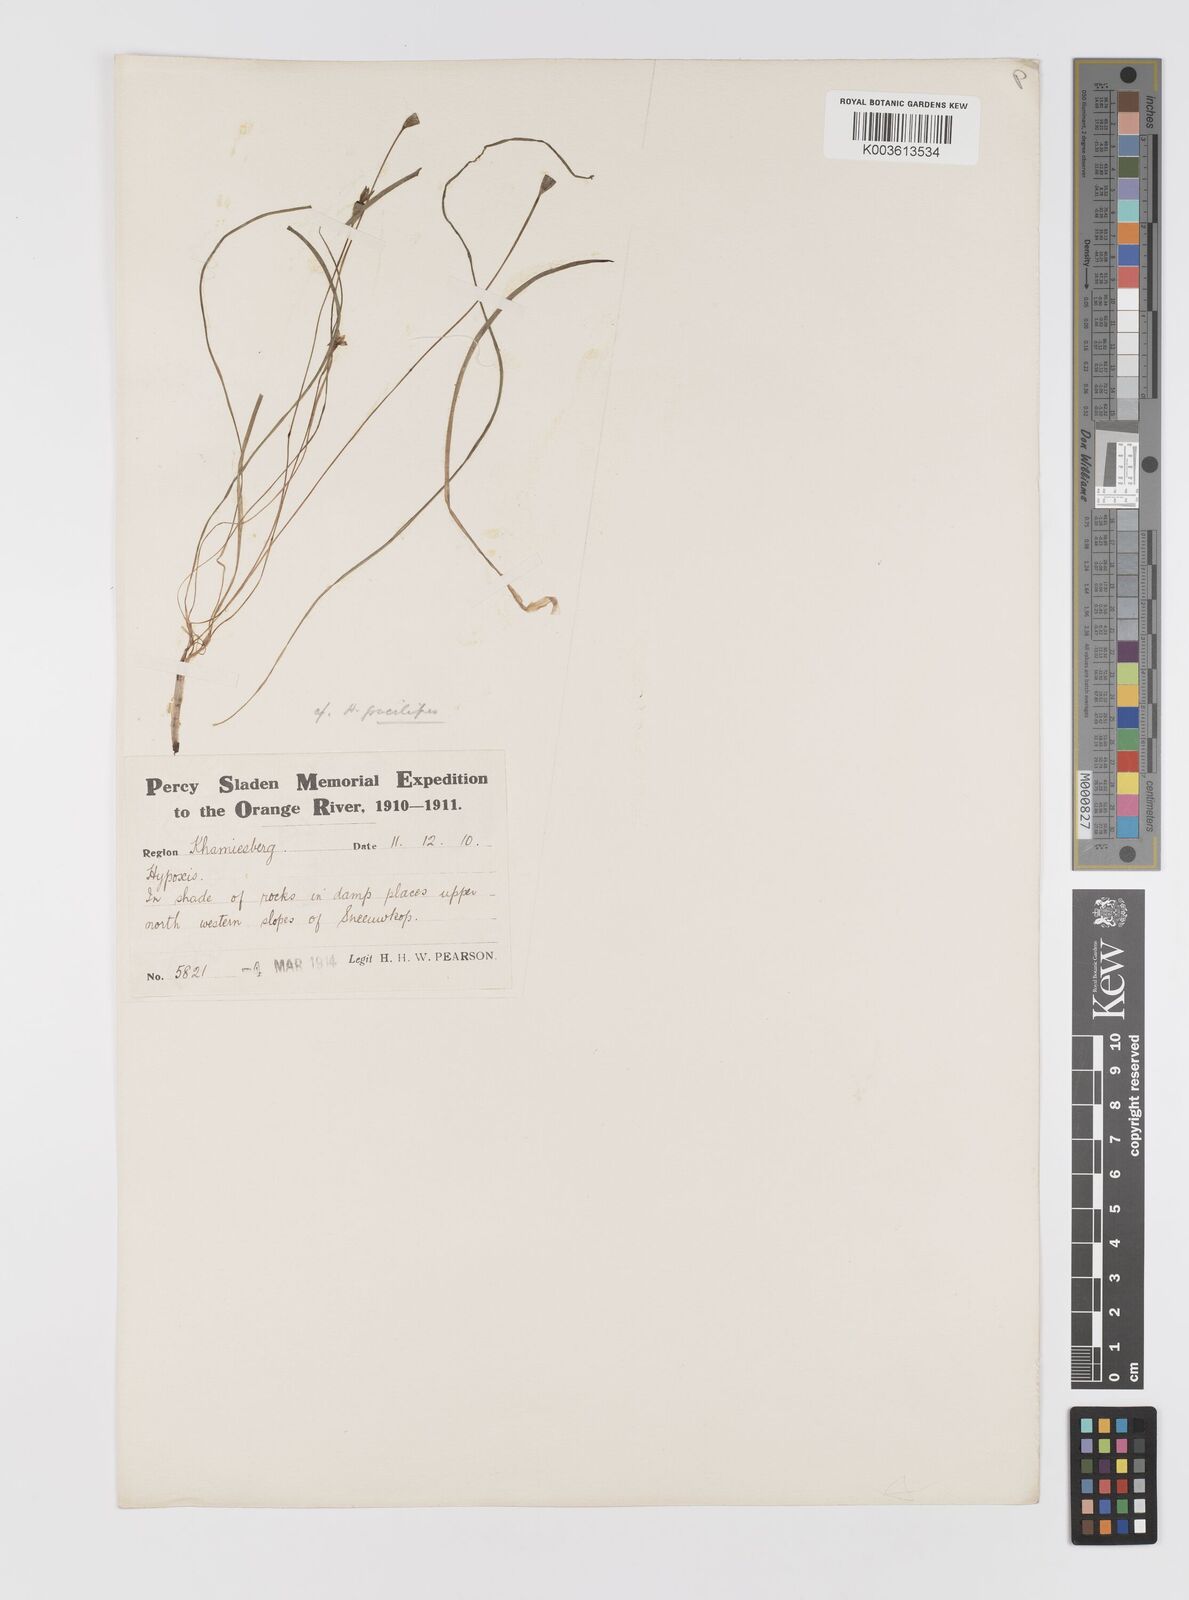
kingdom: Plantae
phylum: Tracheophyta
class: Liliopsida
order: Asparagales
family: Hypoxidaceae
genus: Pauridia
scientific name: Pauridia gracilipes
